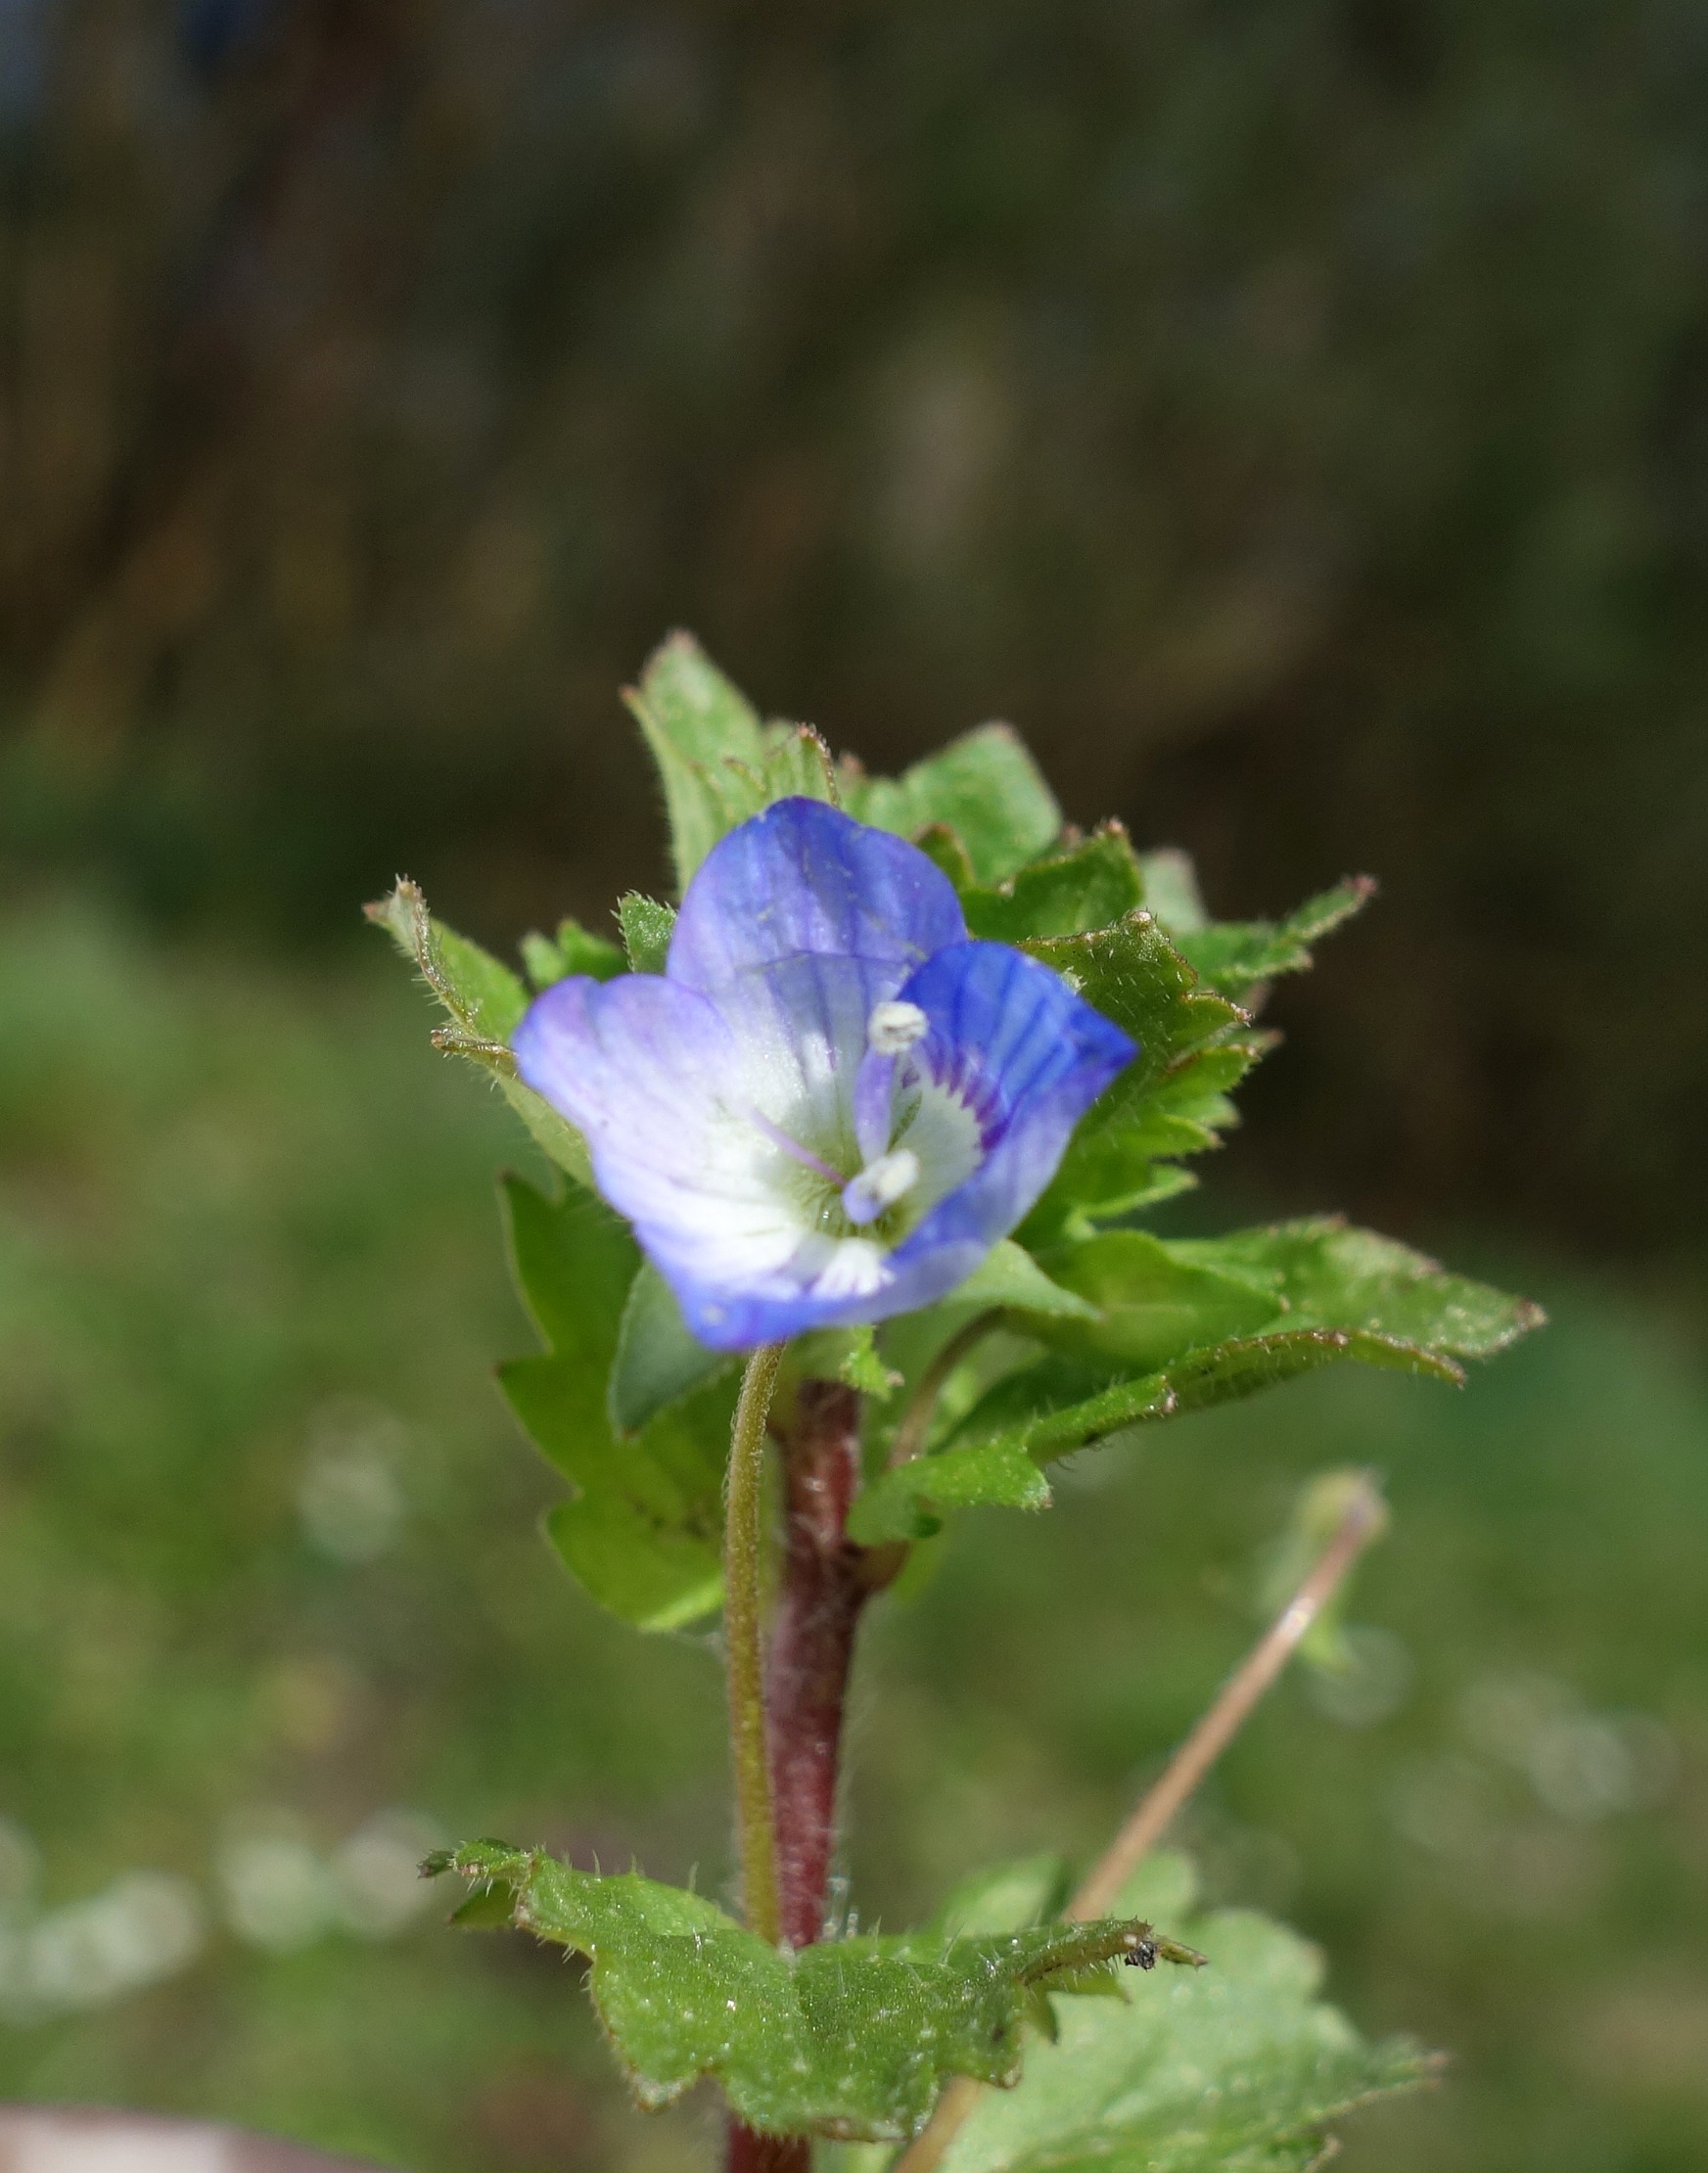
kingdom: Plantae
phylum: Tracheophyta
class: Magnoliopsida
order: Lamiales
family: Plantaginaceae
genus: Veronica
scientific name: Veronica persica
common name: Storkronet ærenpris
